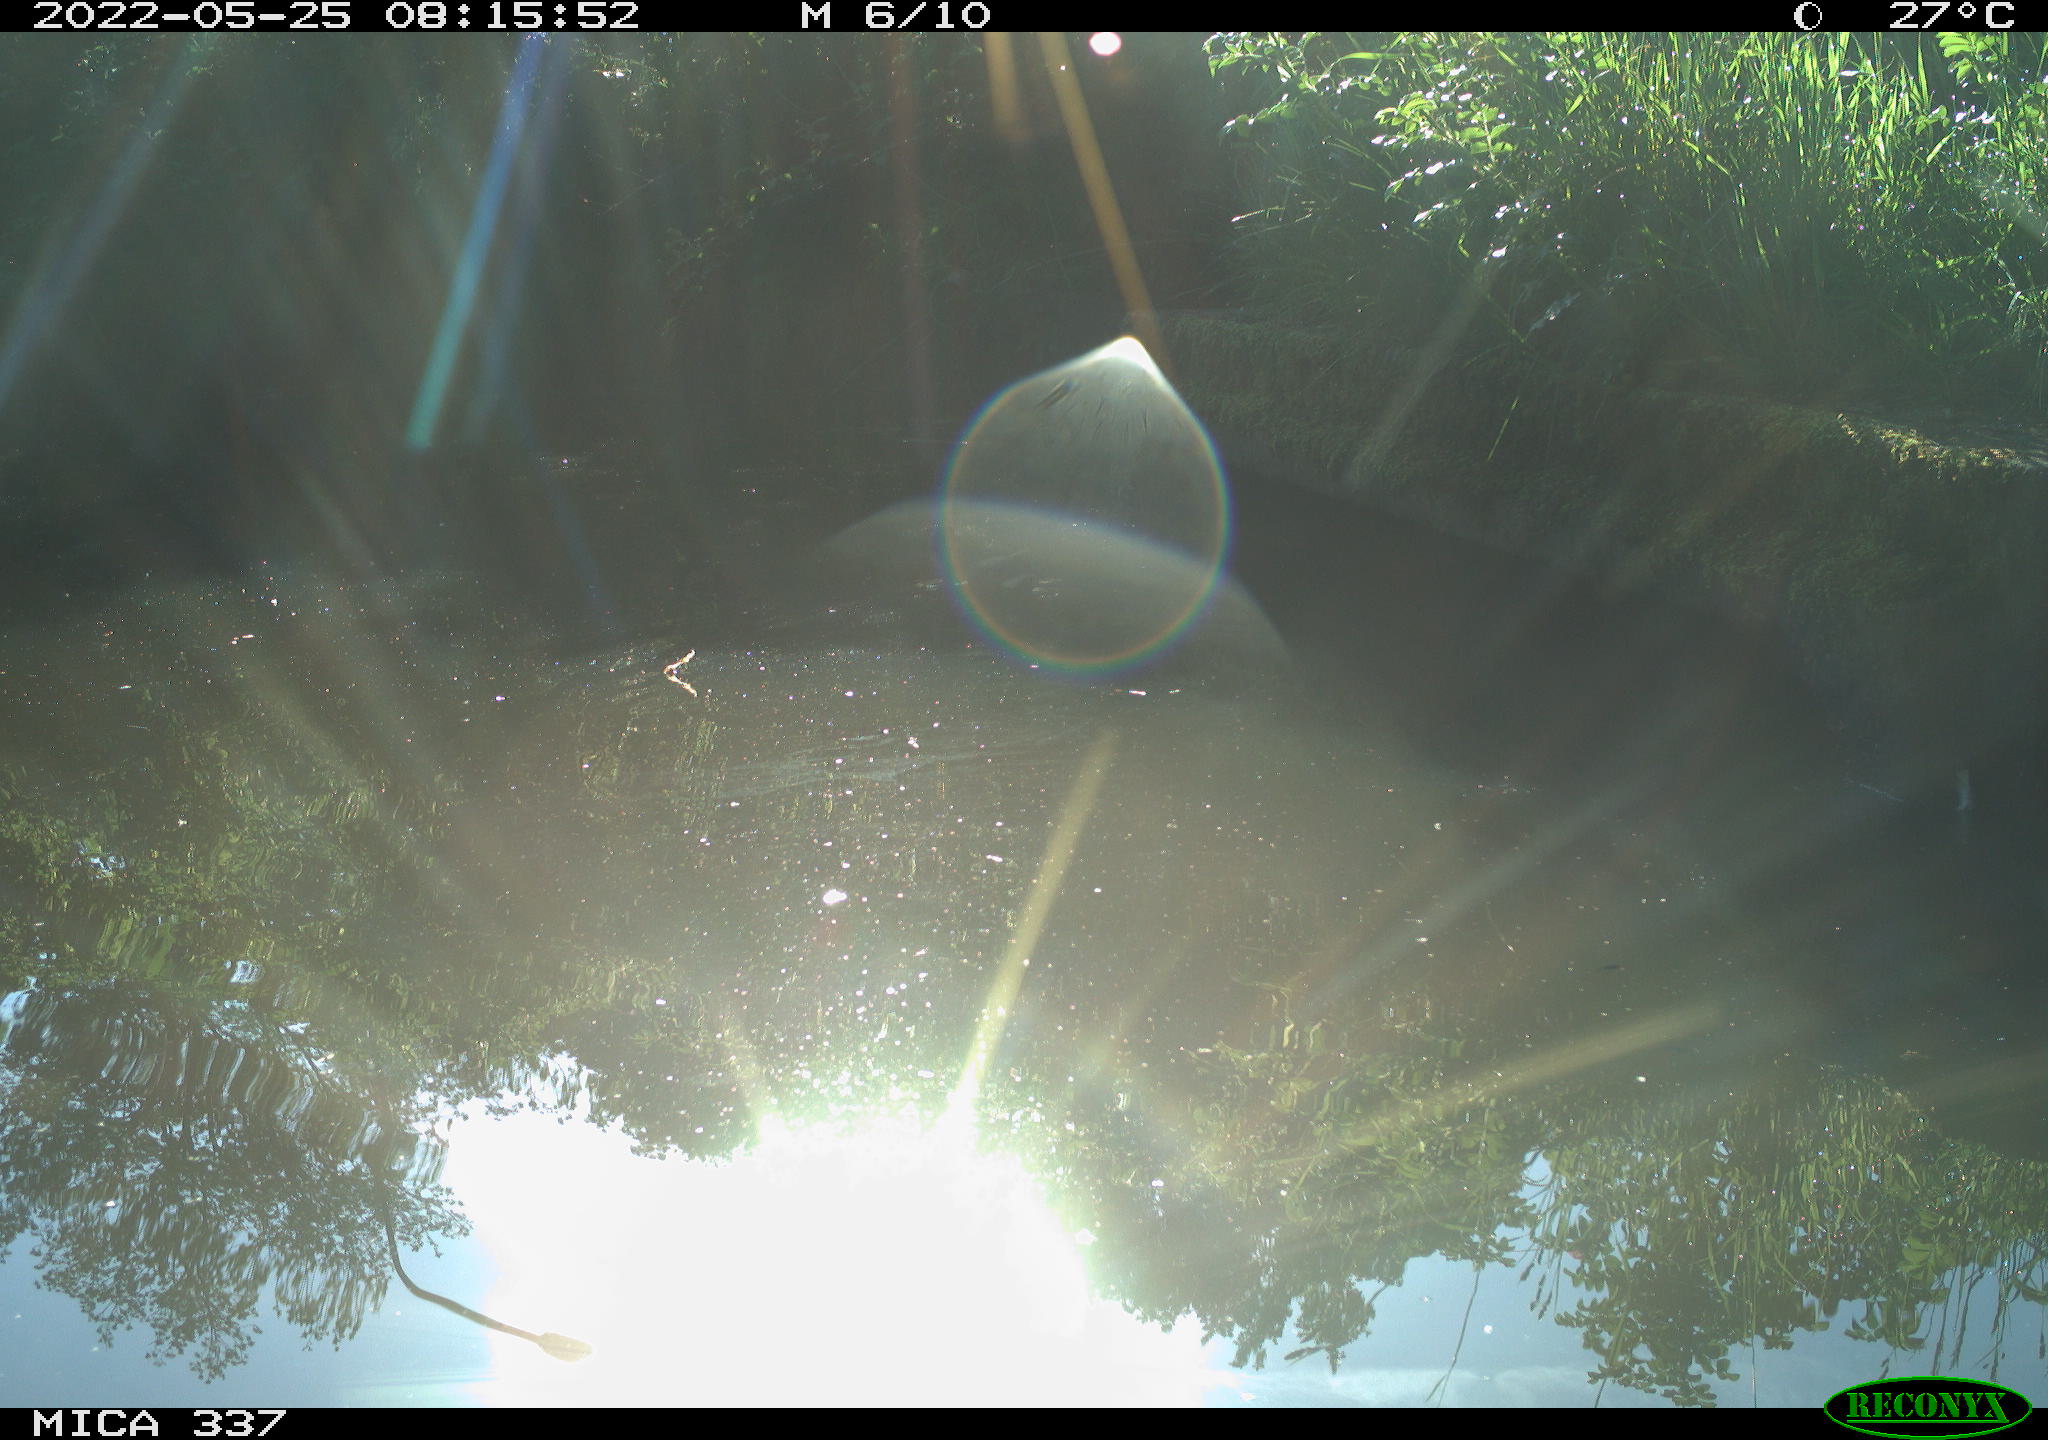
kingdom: Animalia
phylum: Chordata
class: Aves
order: Gruiformes
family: Rallidae
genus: Gallinula
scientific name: Gallinula chloropus
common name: Common moorhen
